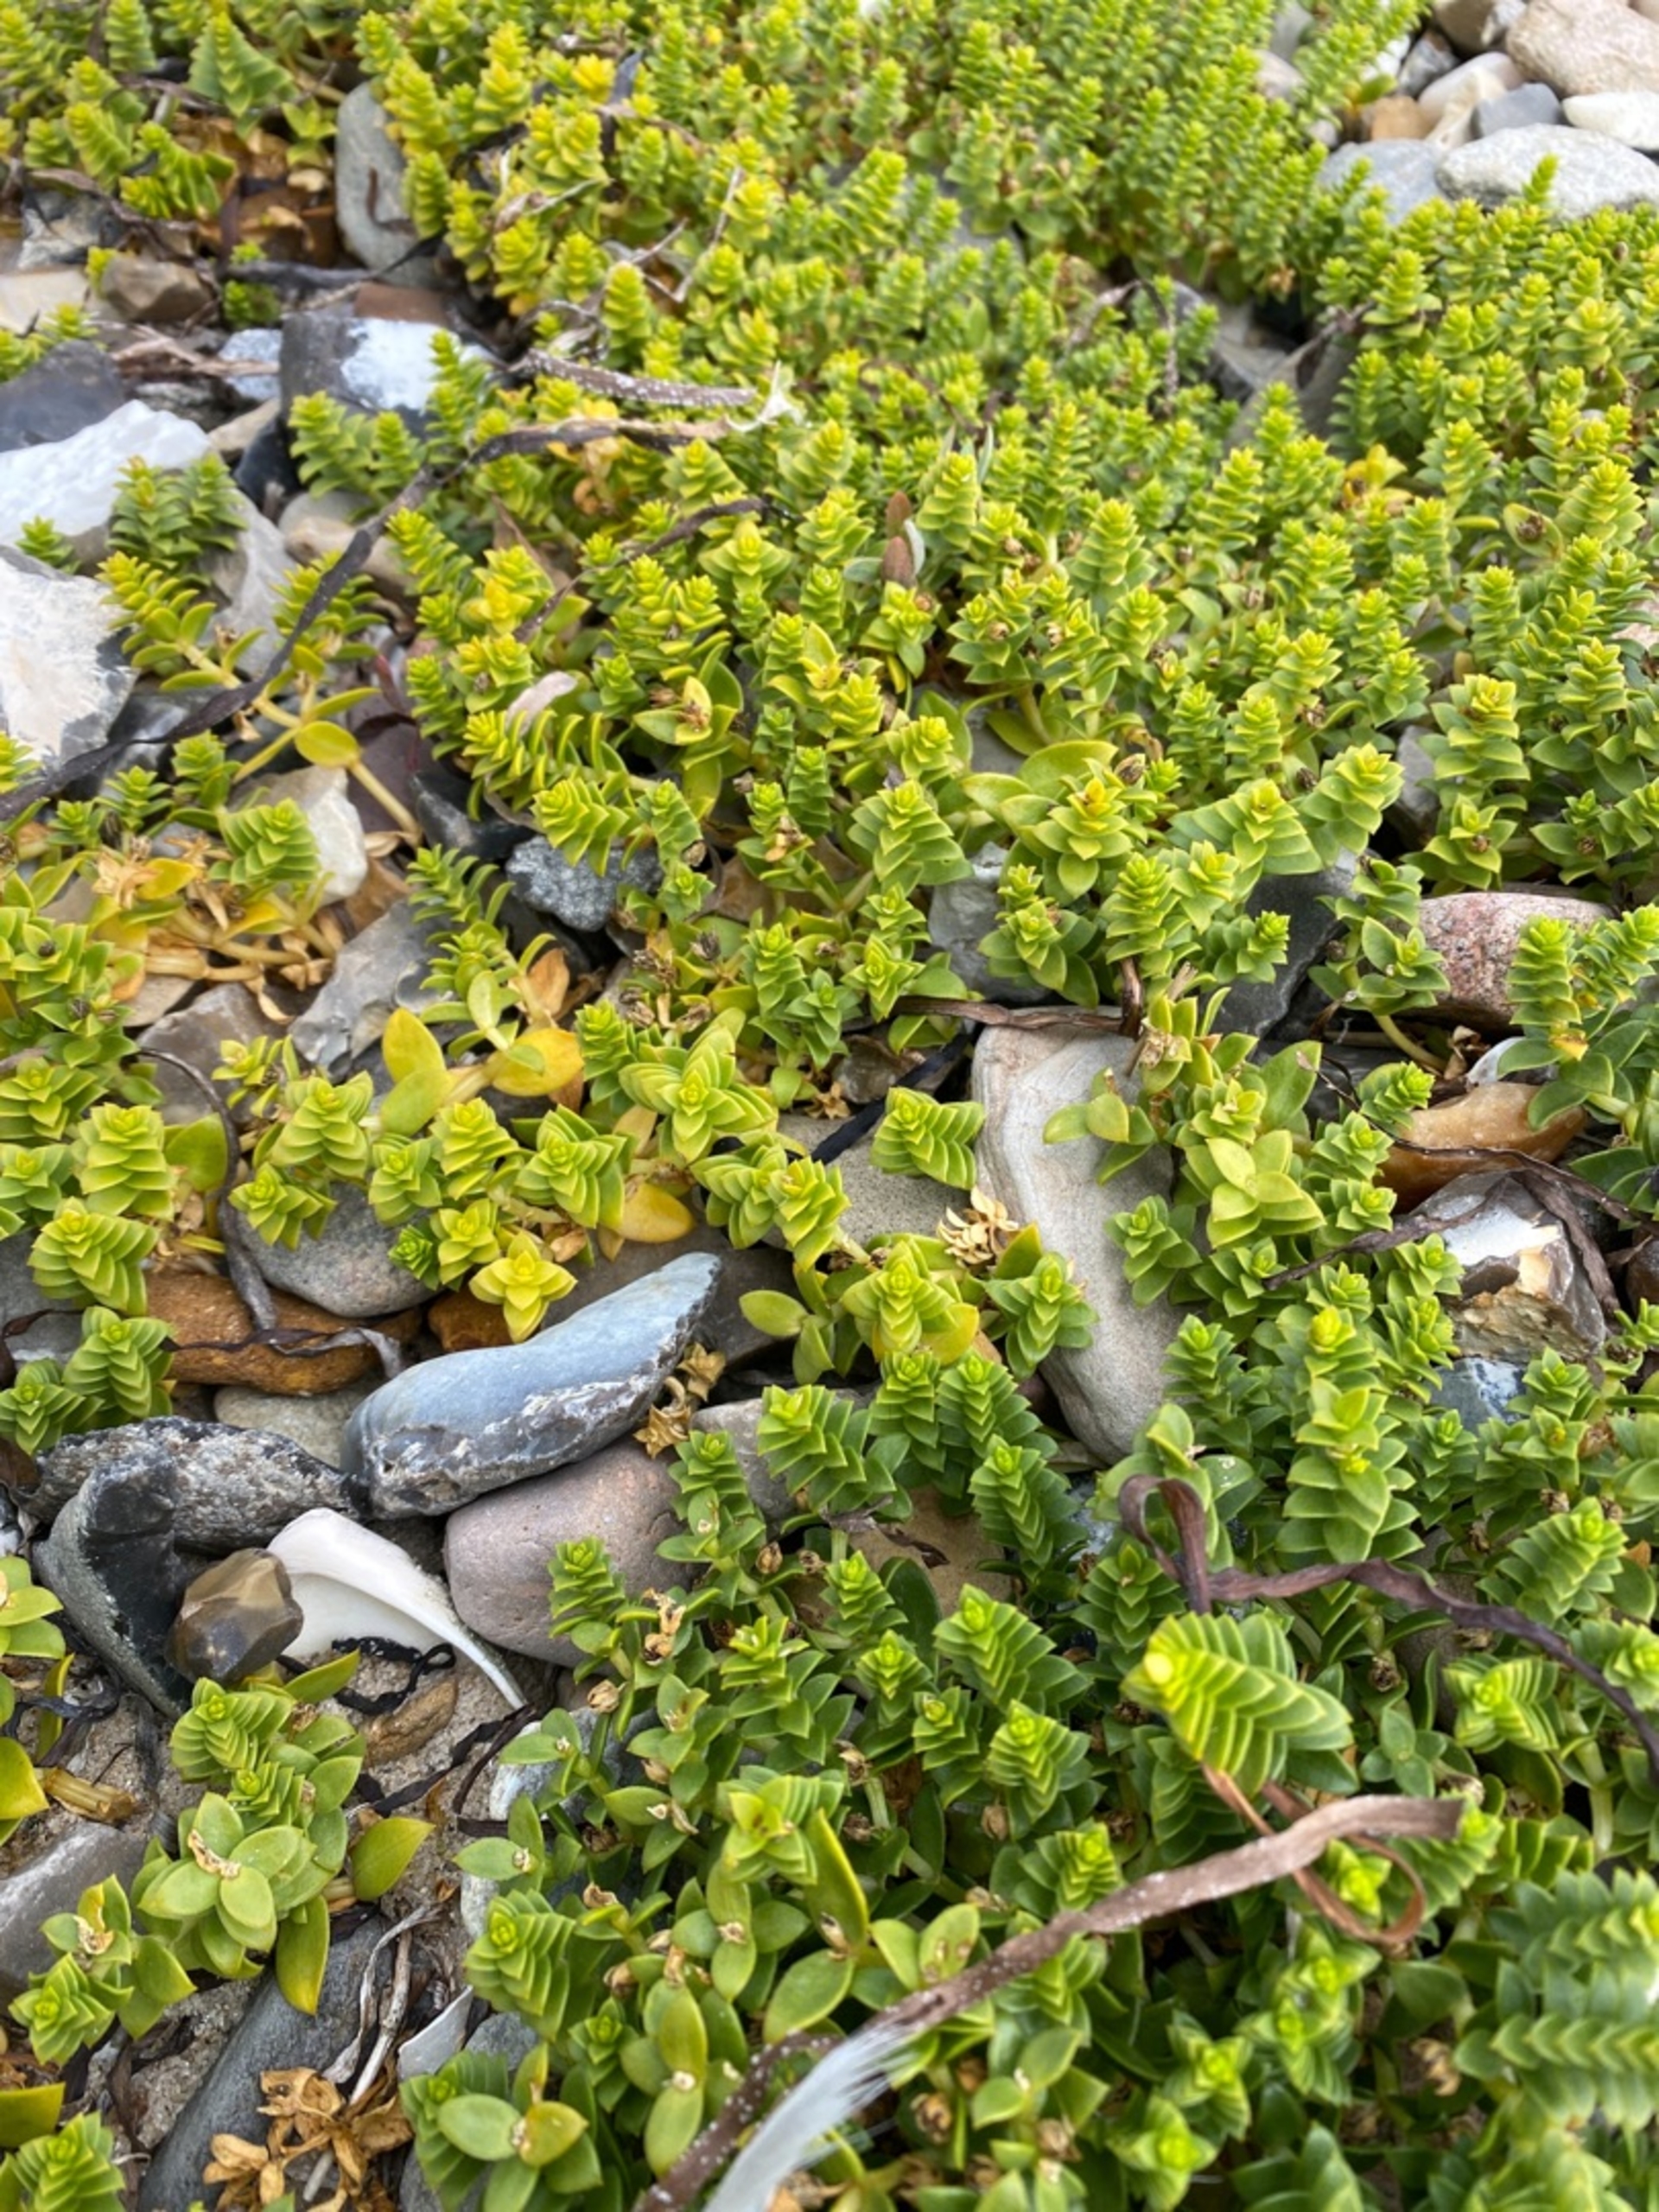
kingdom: Plantae
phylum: Tracheophyta
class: Magnoliopsida
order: Caryophyllales
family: Caryophyllaceae
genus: Honckenya
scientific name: Honckenya peploides
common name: Strandarve
